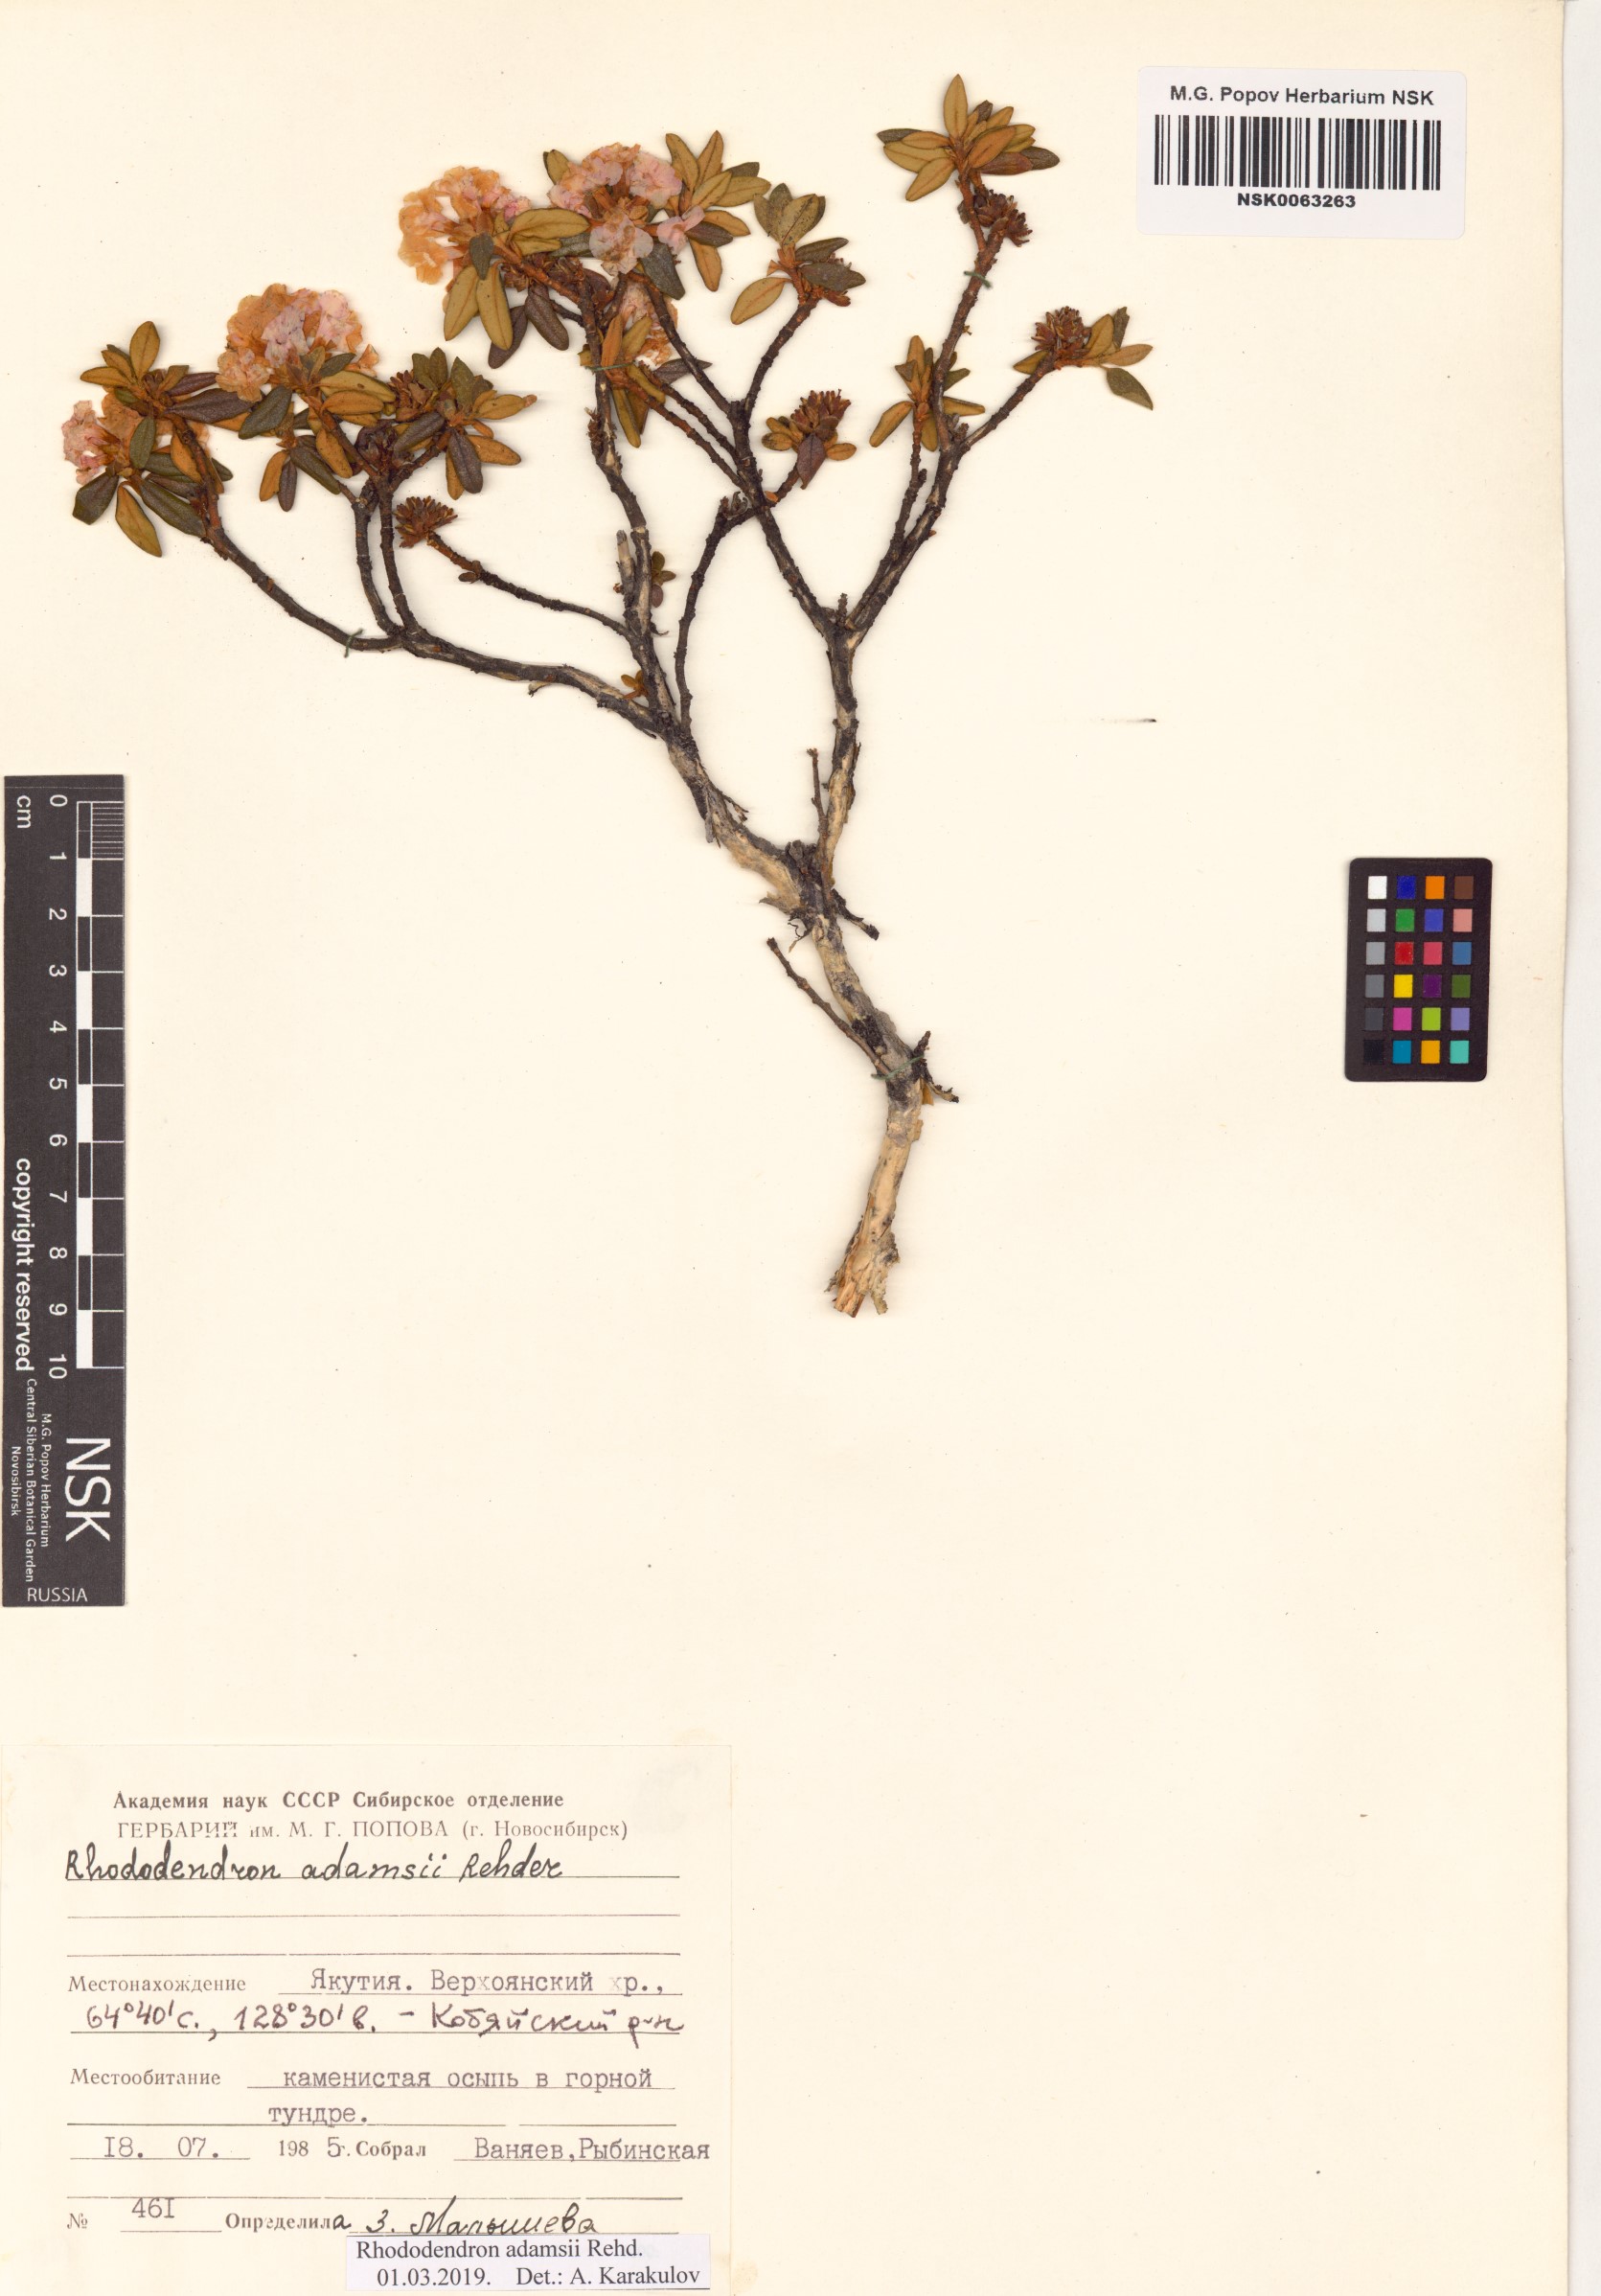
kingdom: Plantae
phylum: Tracheophyta
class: Magnoliopsida
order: Ericales
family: Ericaceae
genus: Rhododendron
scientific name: Rhododendron adamsii
